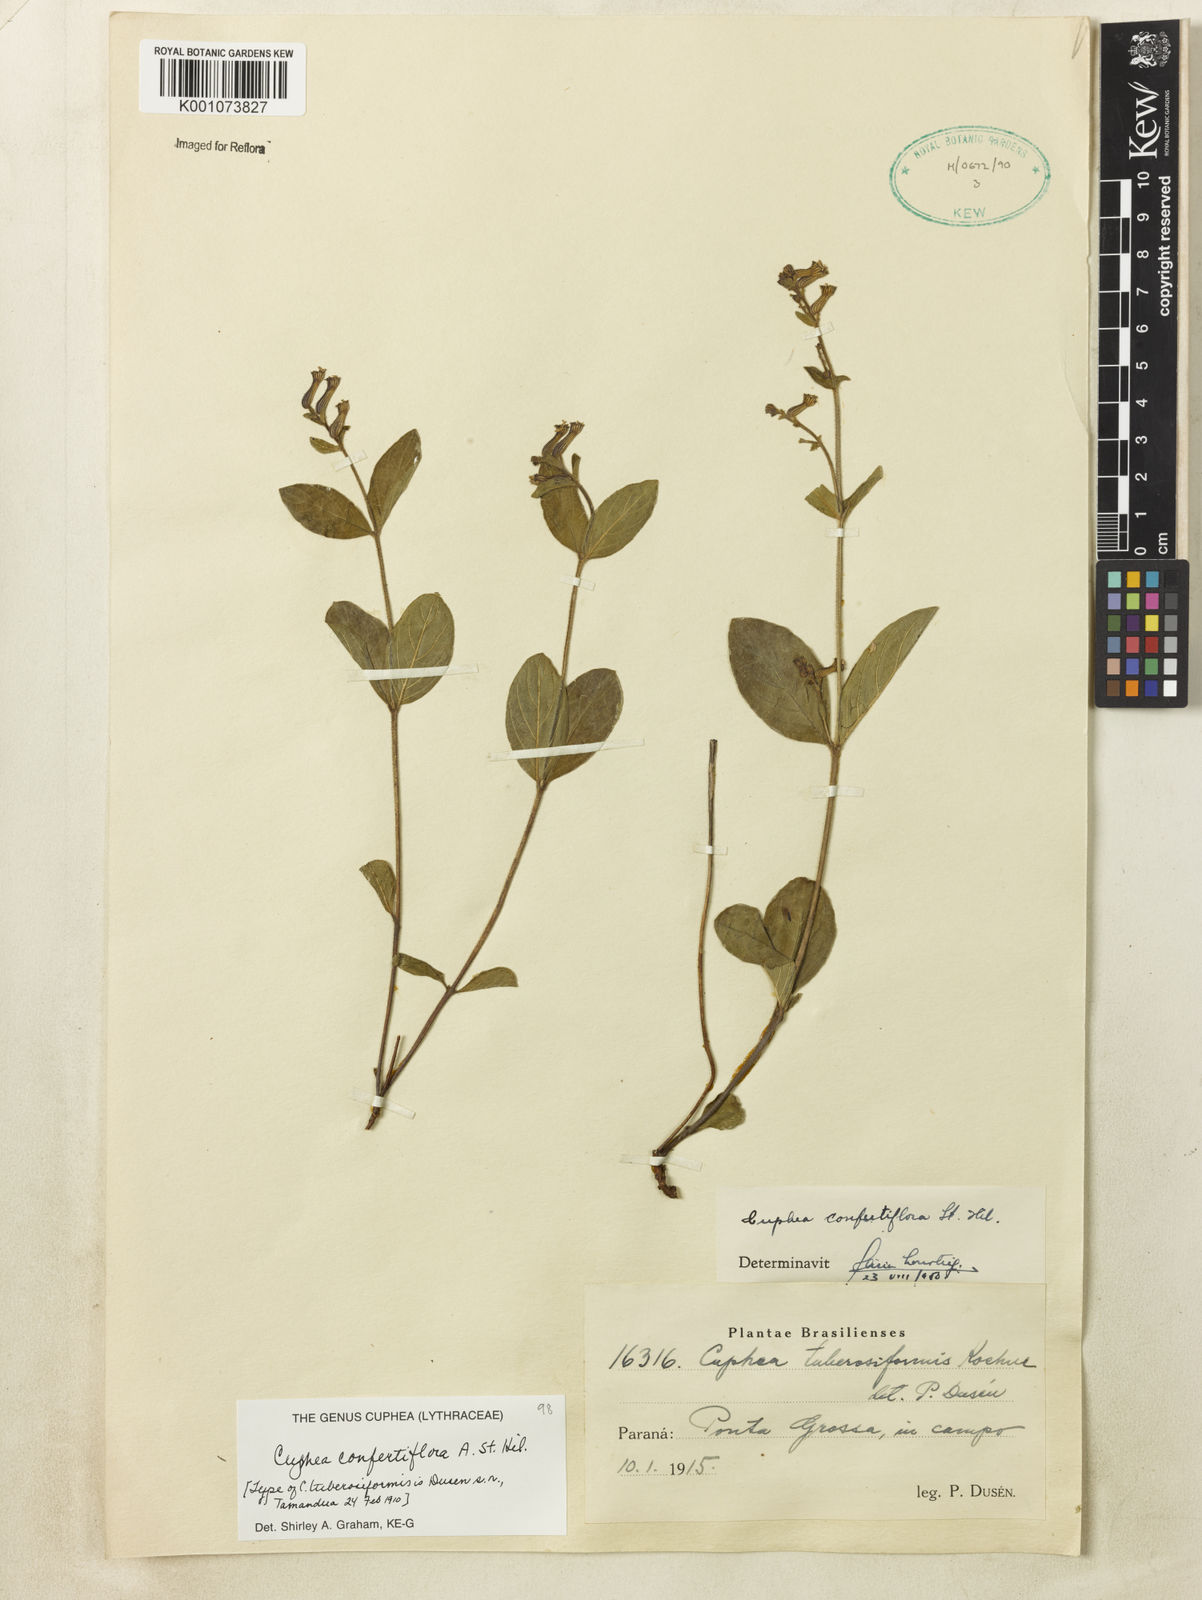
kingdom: Plantae
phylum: Tracheophyta
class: Magnoliopsida
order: Myrtales
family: Lythraceae
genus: Cuphea
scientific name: Cuphea confertiflora
